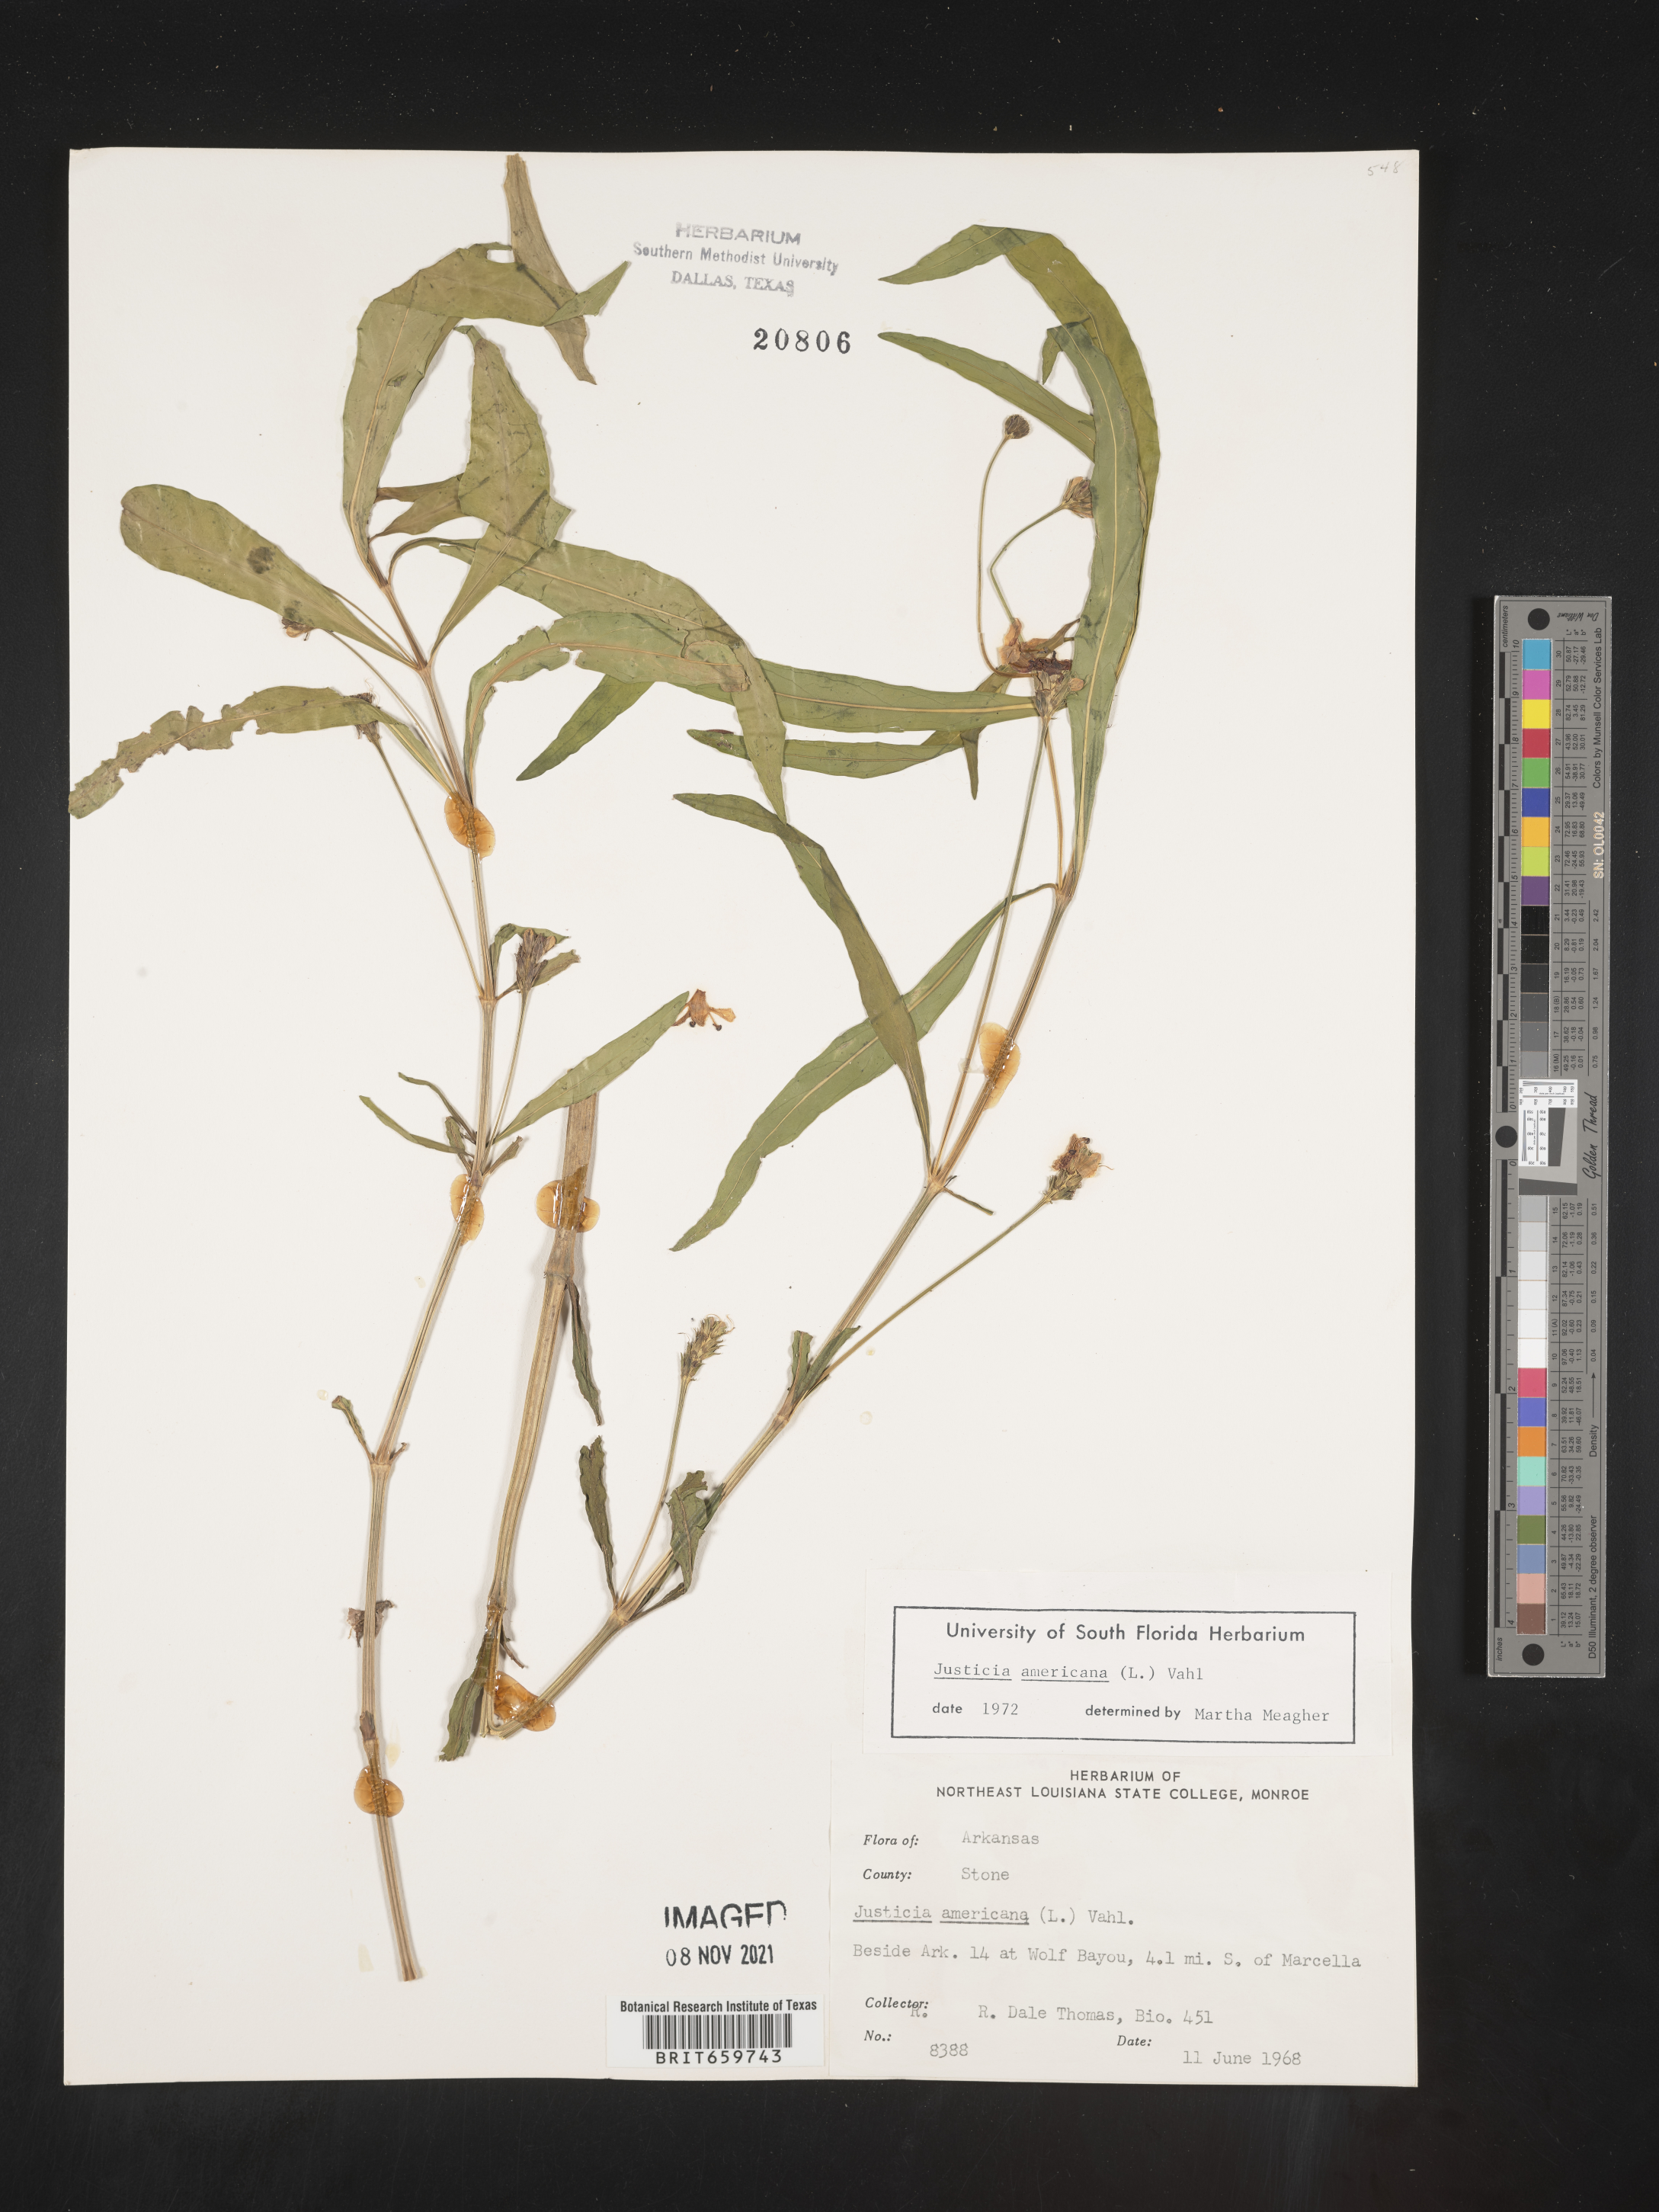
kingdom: Plantae
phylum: Tracheophyta
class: Magnoliopsida
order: Lamiales
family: Acanthaceae
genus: Dianthera
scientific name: Dianthera americana
